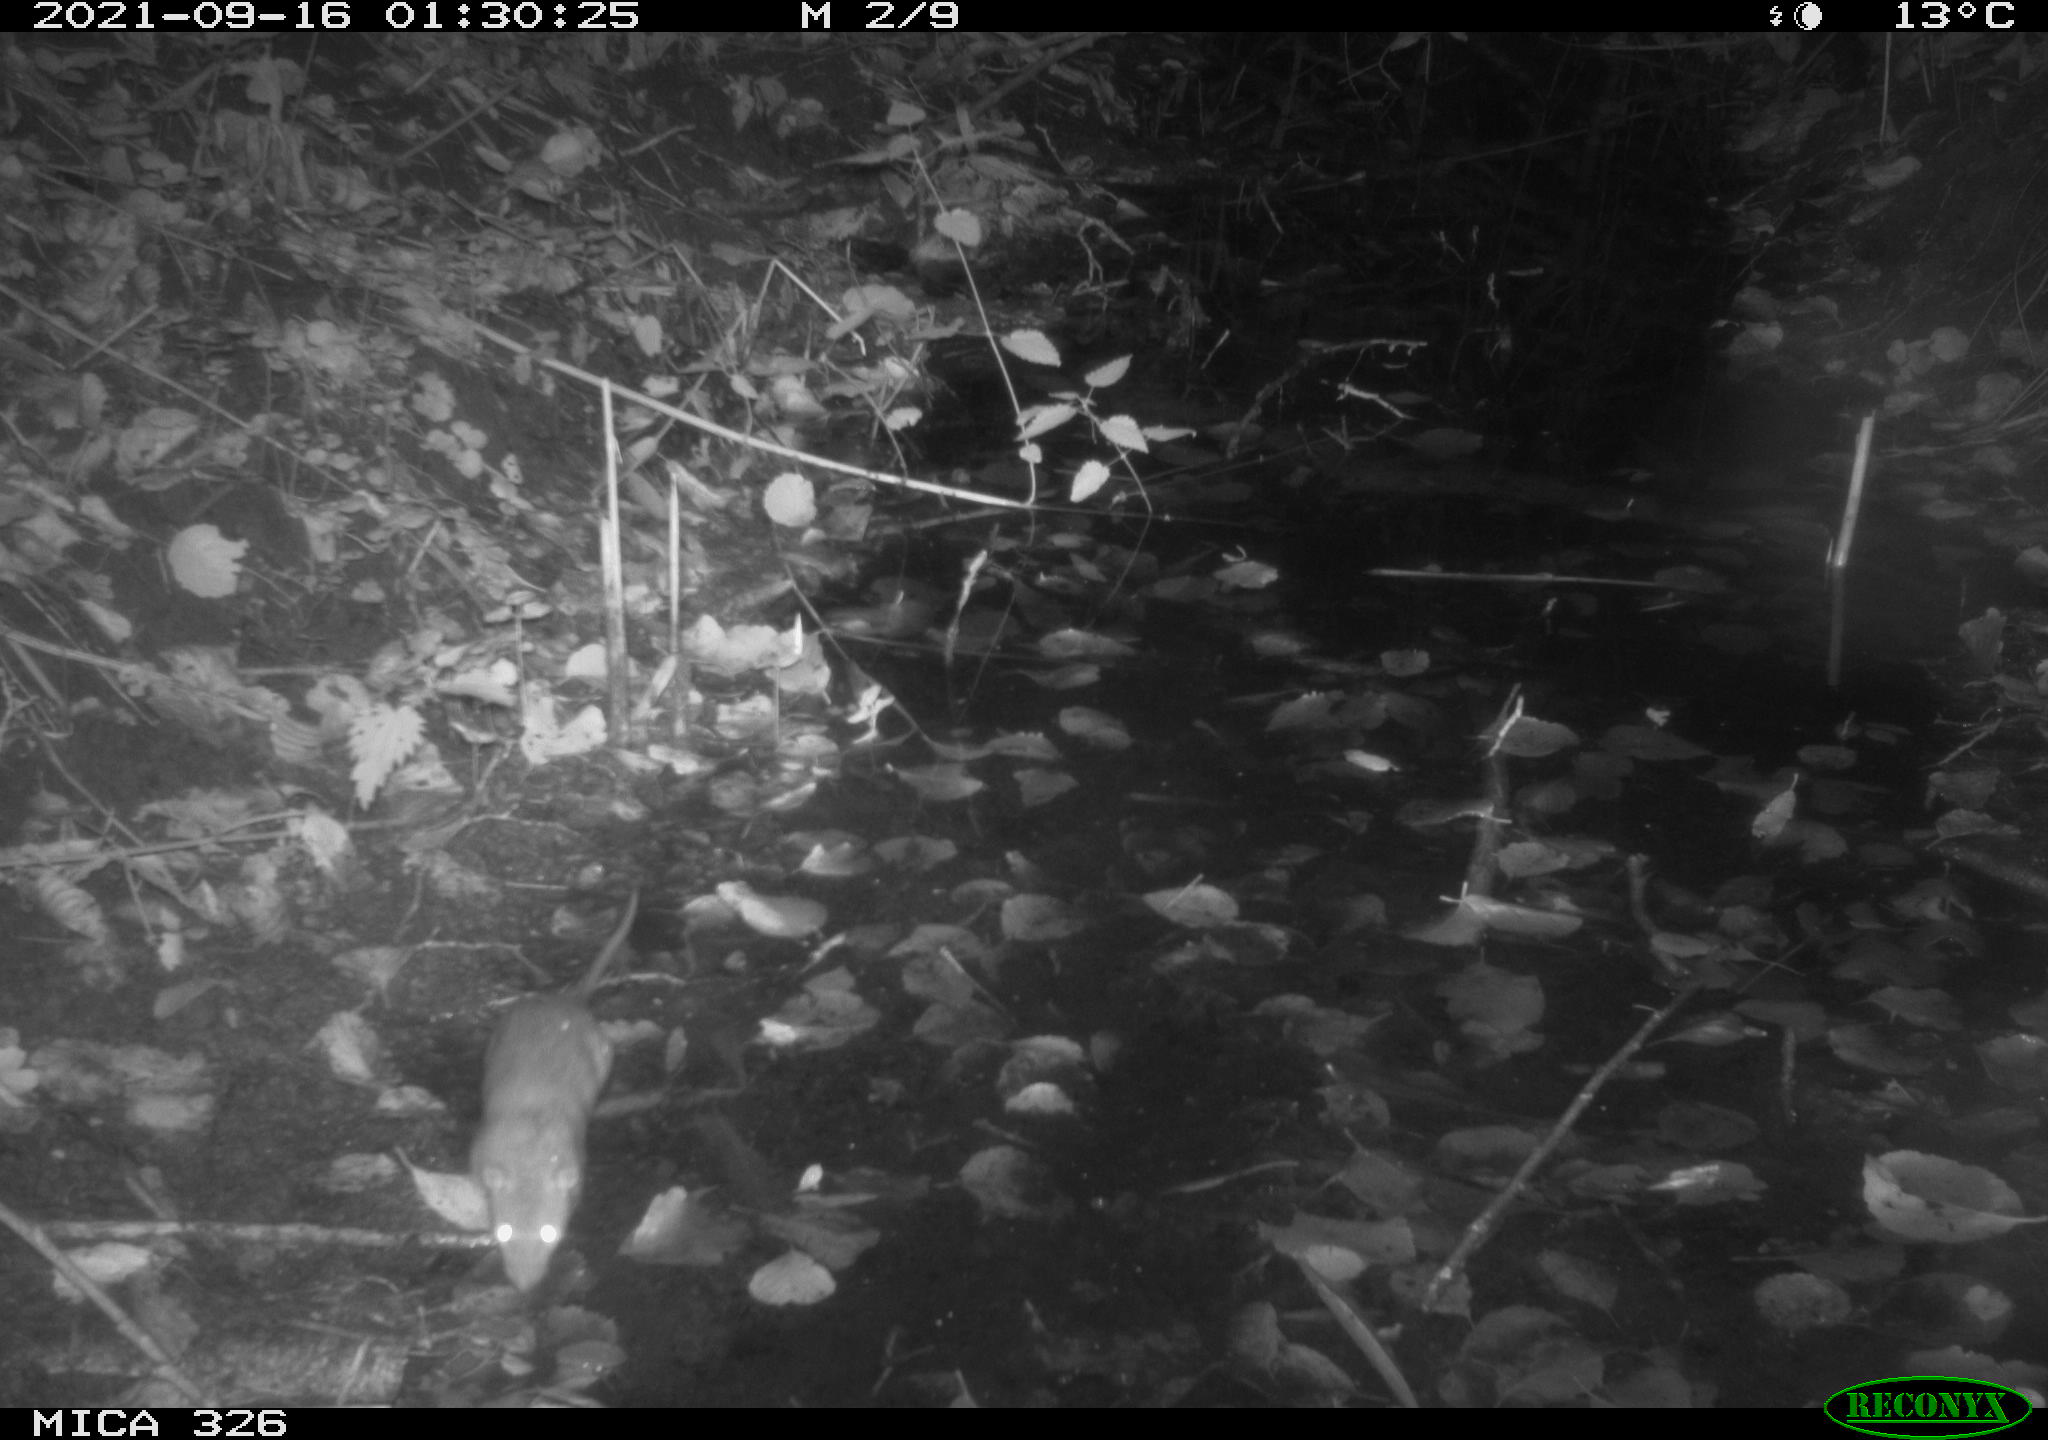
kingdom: Animalia
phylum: Chordata
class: Mammalia
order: Rodentia
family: Muridae
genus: Rattus
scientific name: Rattus norvegicus
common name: Brown rat
